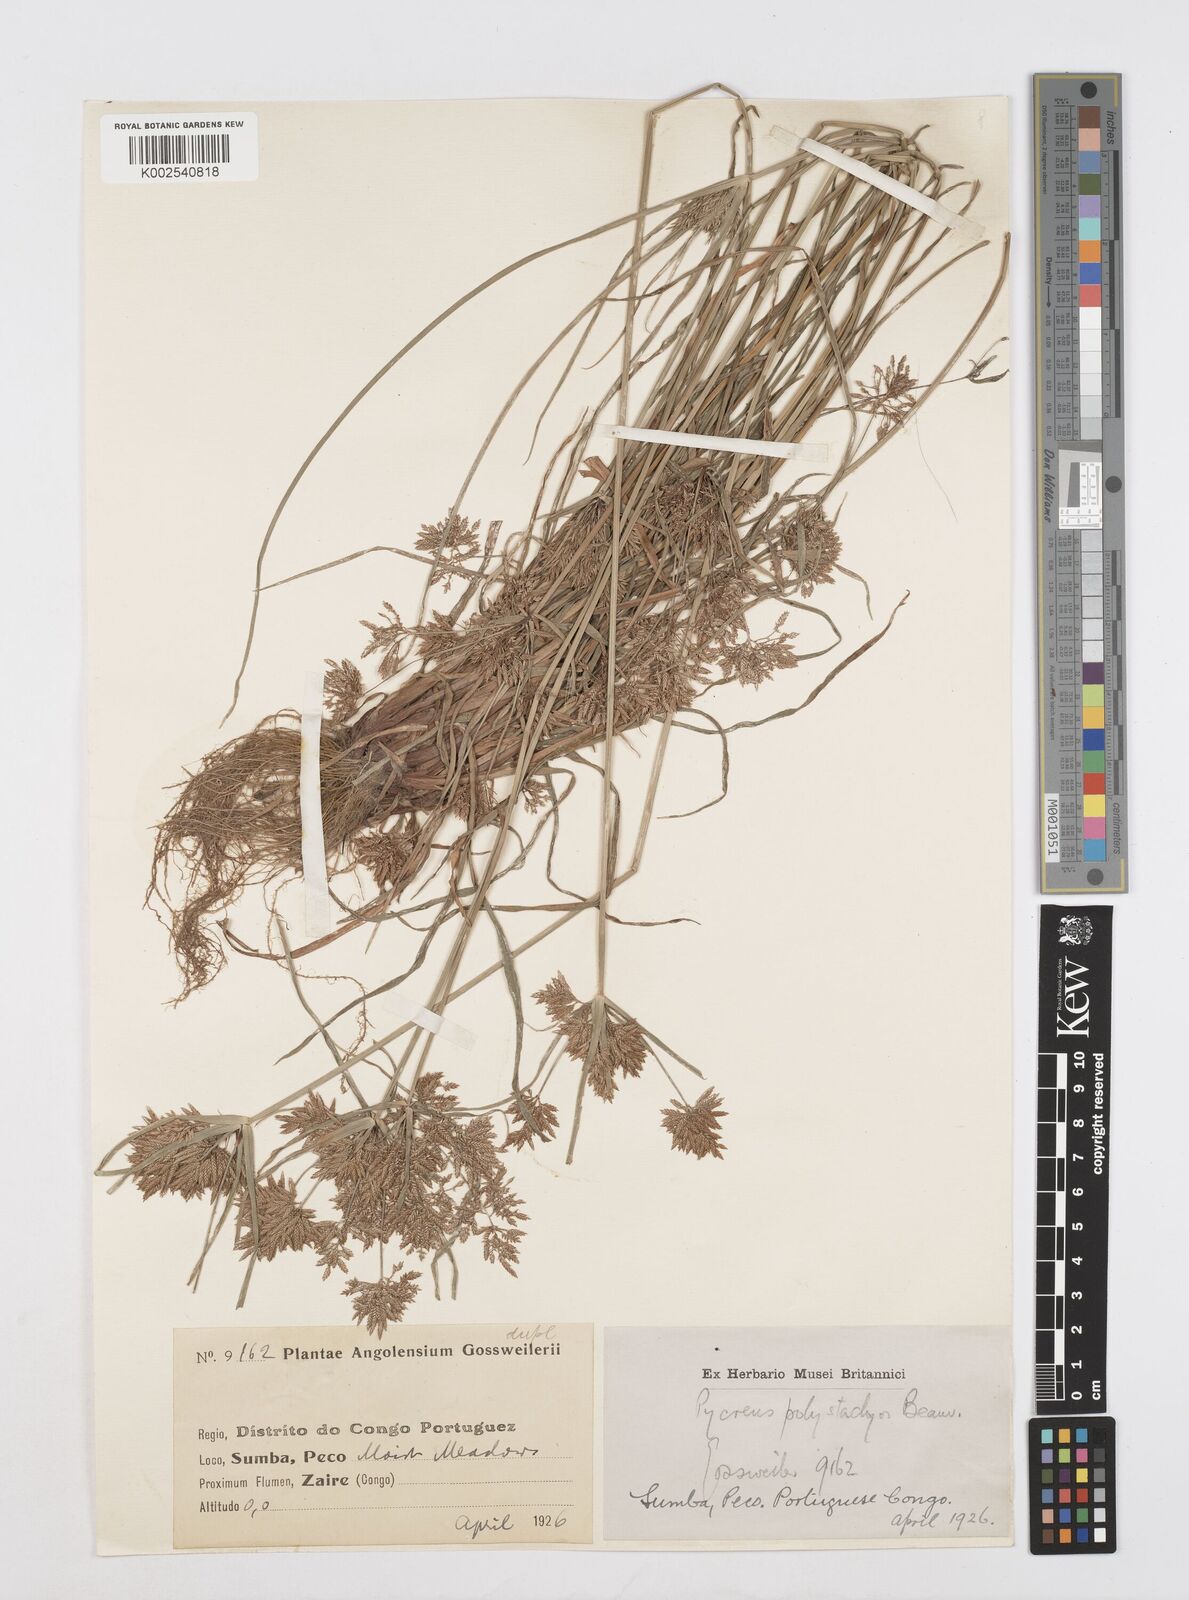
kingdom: Plantae
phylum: Tracheophyta
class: Liliopsida
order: Poales
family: Cyperaceae
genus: Cyperus
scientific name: Cyperus polystachyos
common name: Bunchy flat sedge
